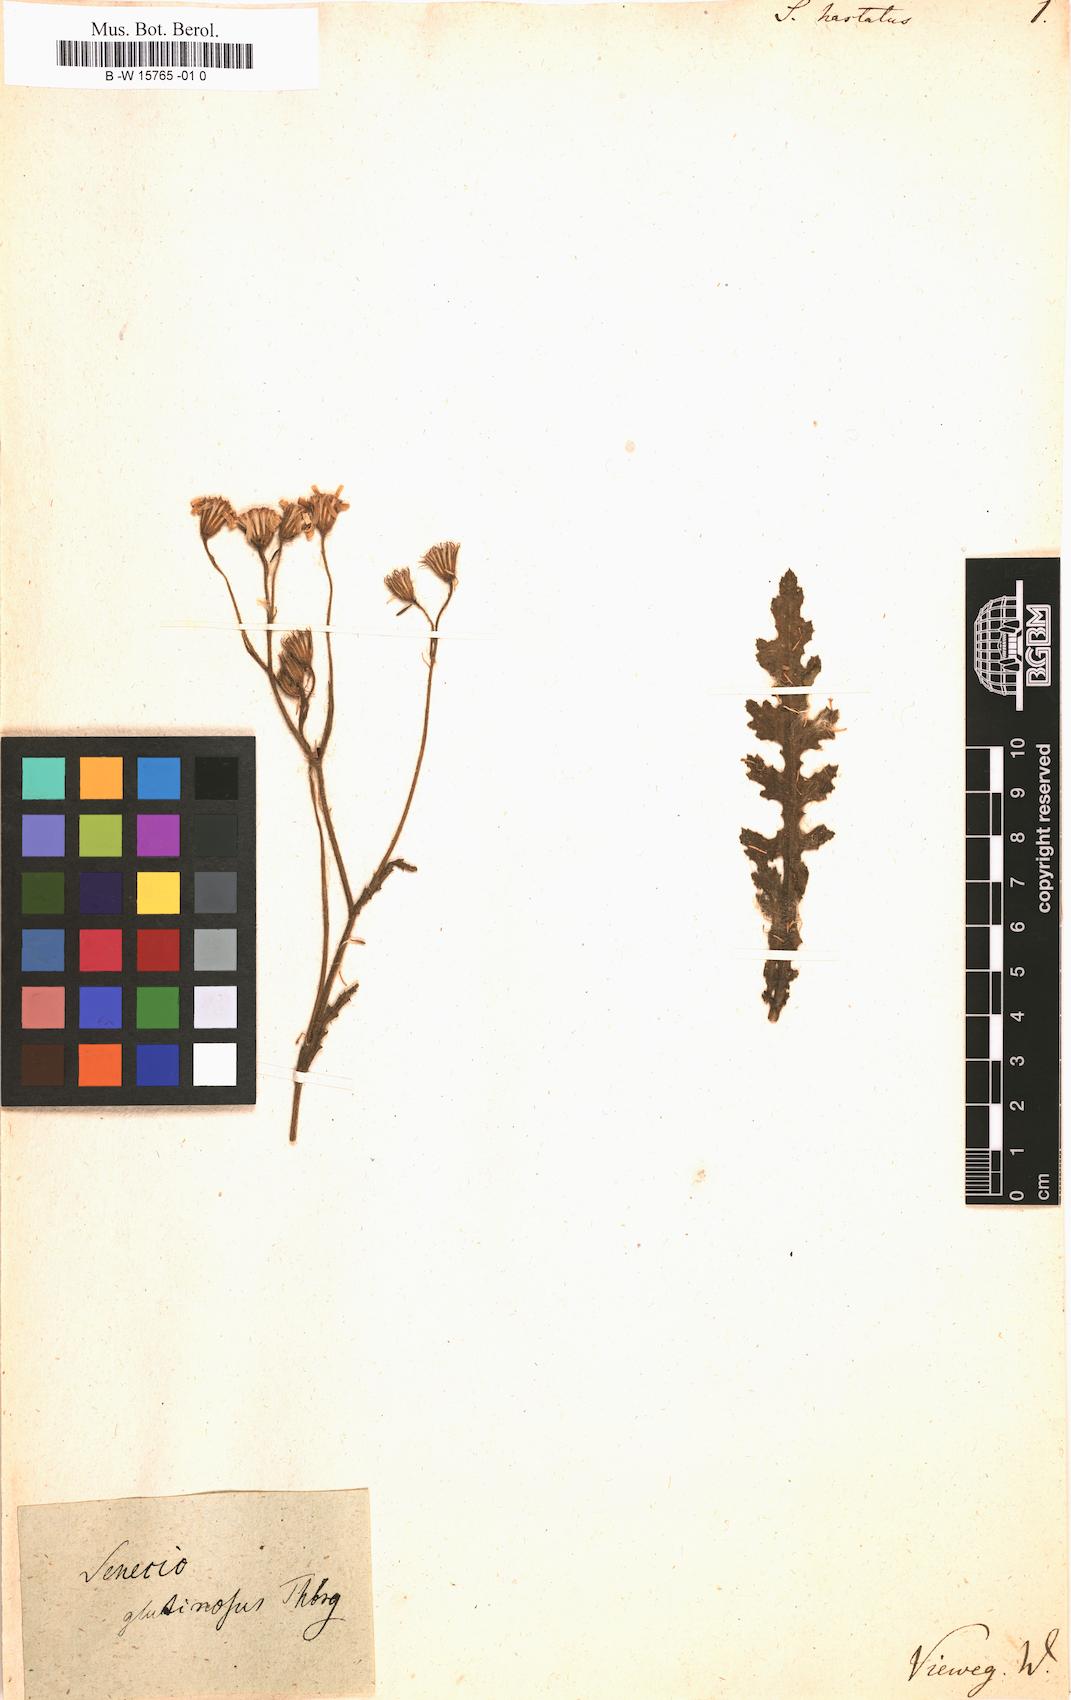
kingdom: Plantae
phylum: Tracheophyta
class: Magnoliopsida
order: Asterales
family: Asteraceae
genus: Senecio
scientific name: Senecio hastatus
